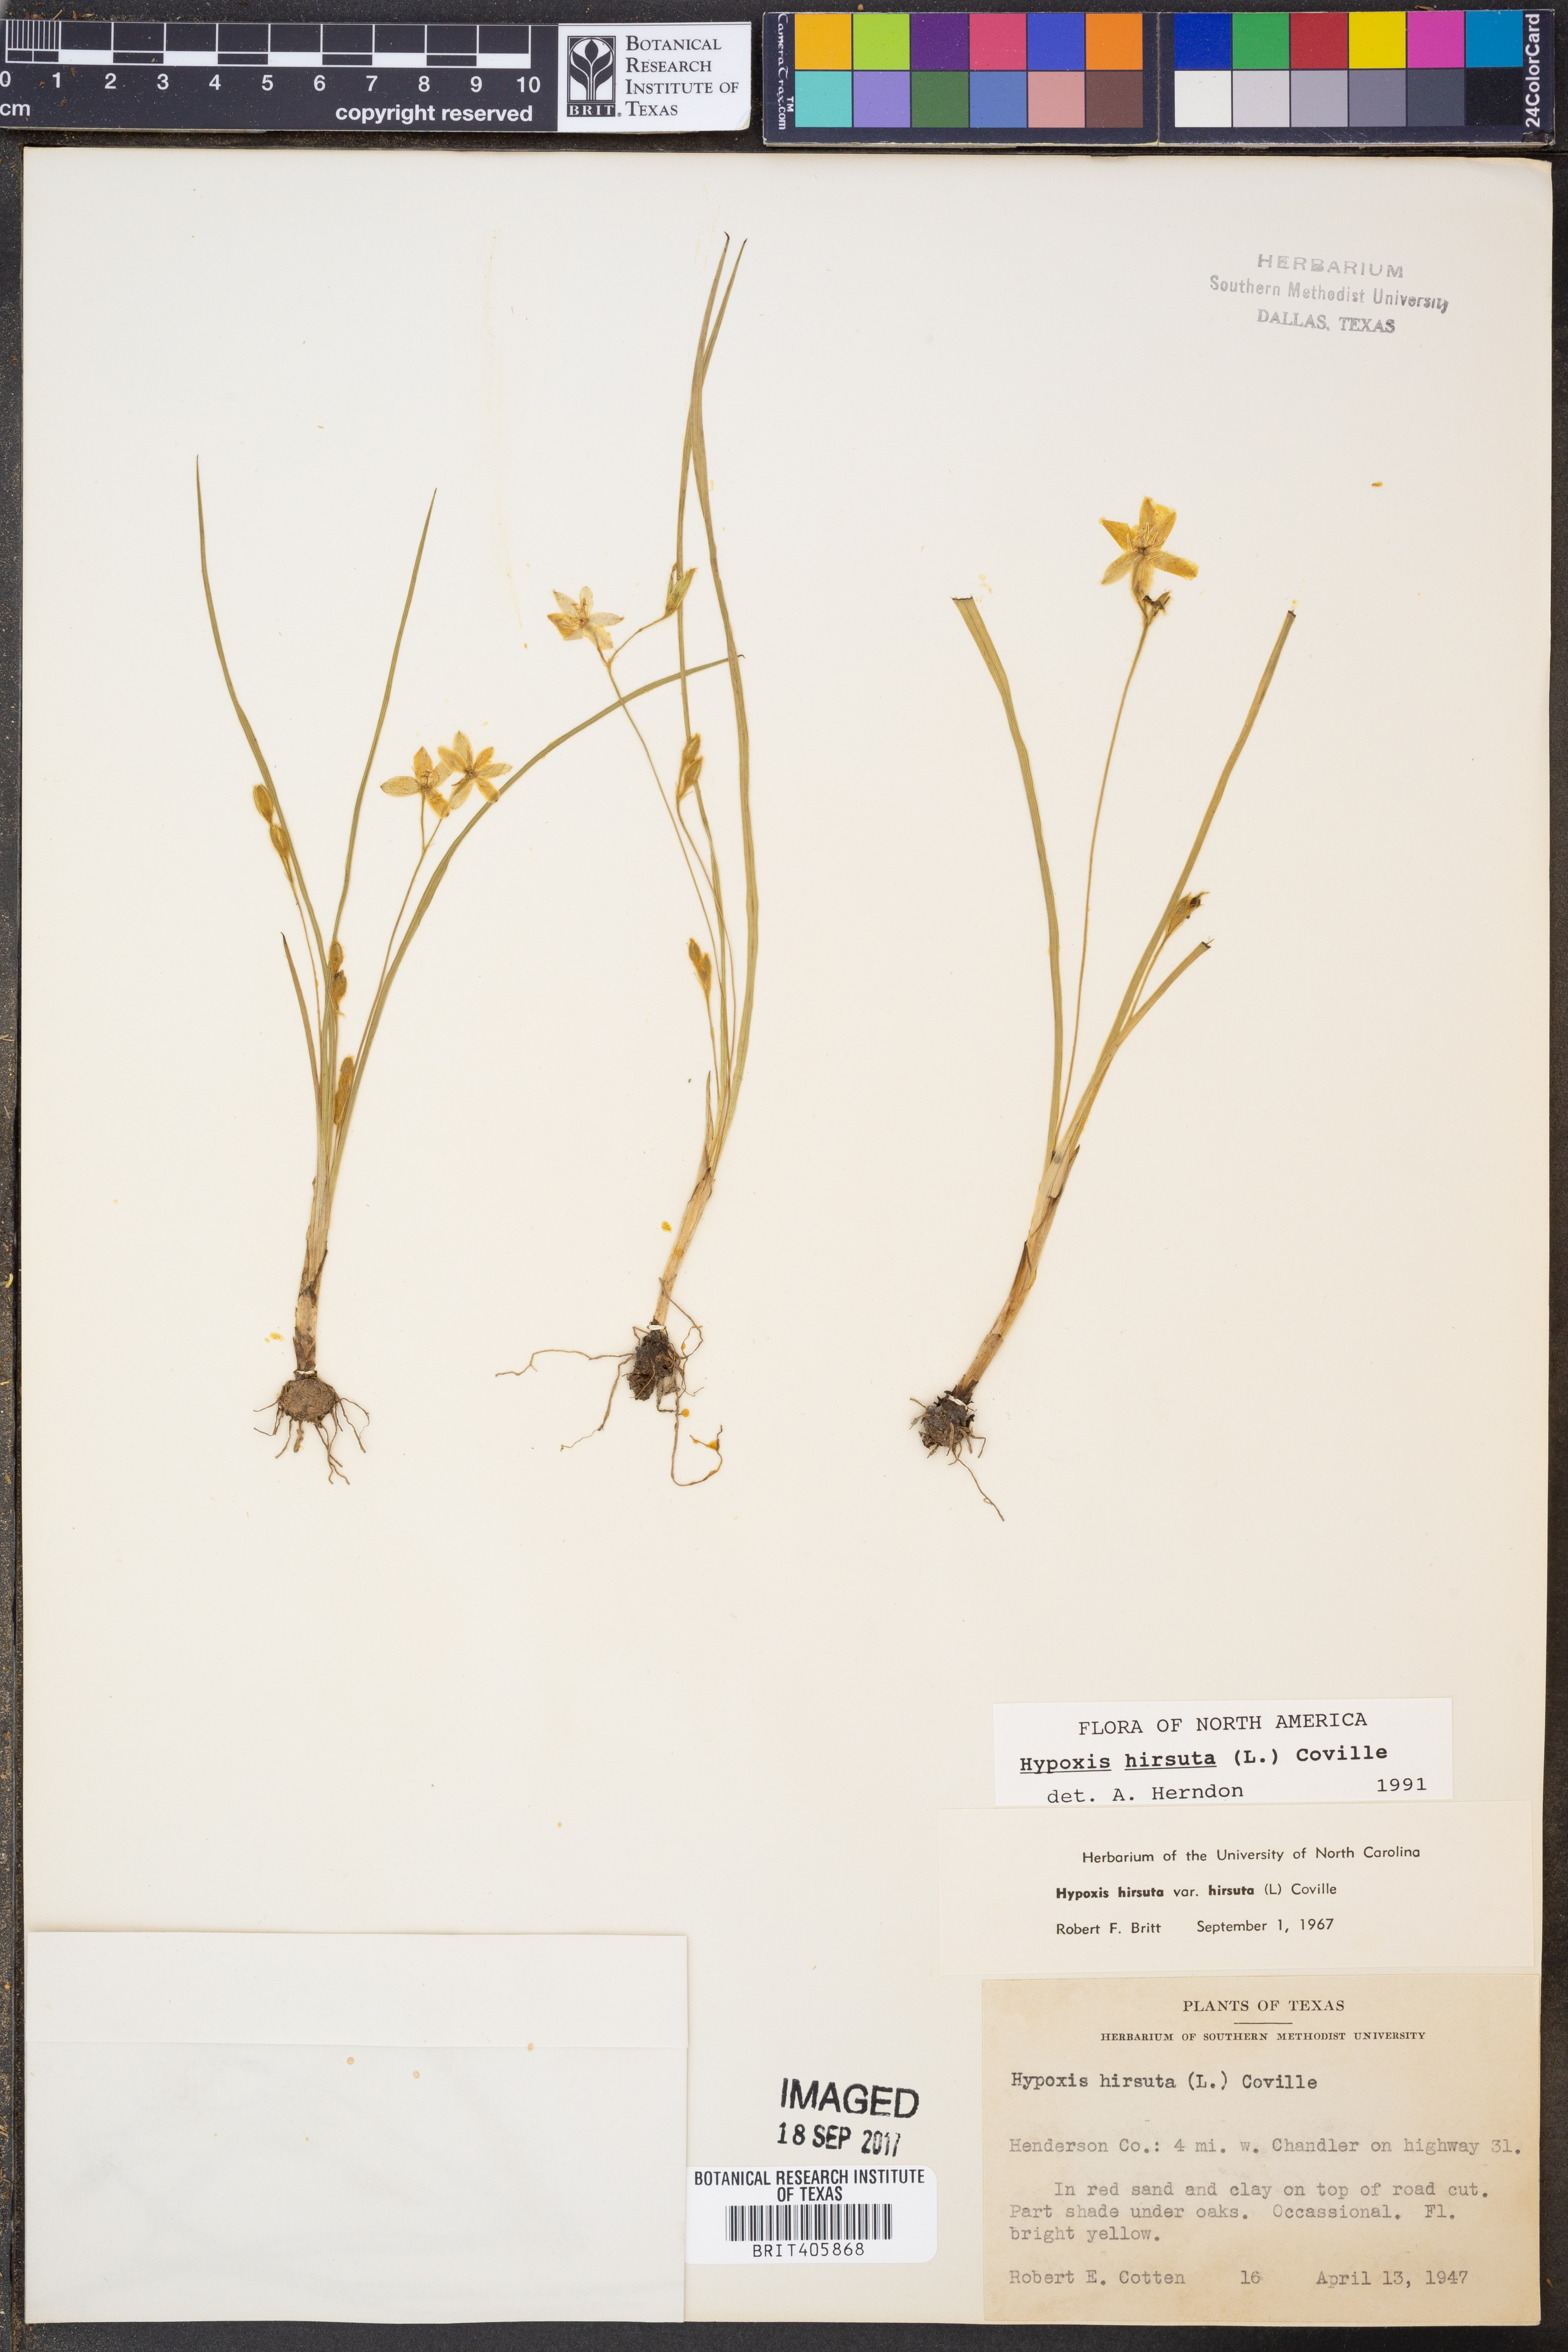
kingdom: Plantae
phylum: Tracheophyta
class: Liliopsida
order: Asparagales
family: Hypoxidaceae
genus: Hypoxis
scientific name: Hypoxis hirsuta
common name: Common goldstar
